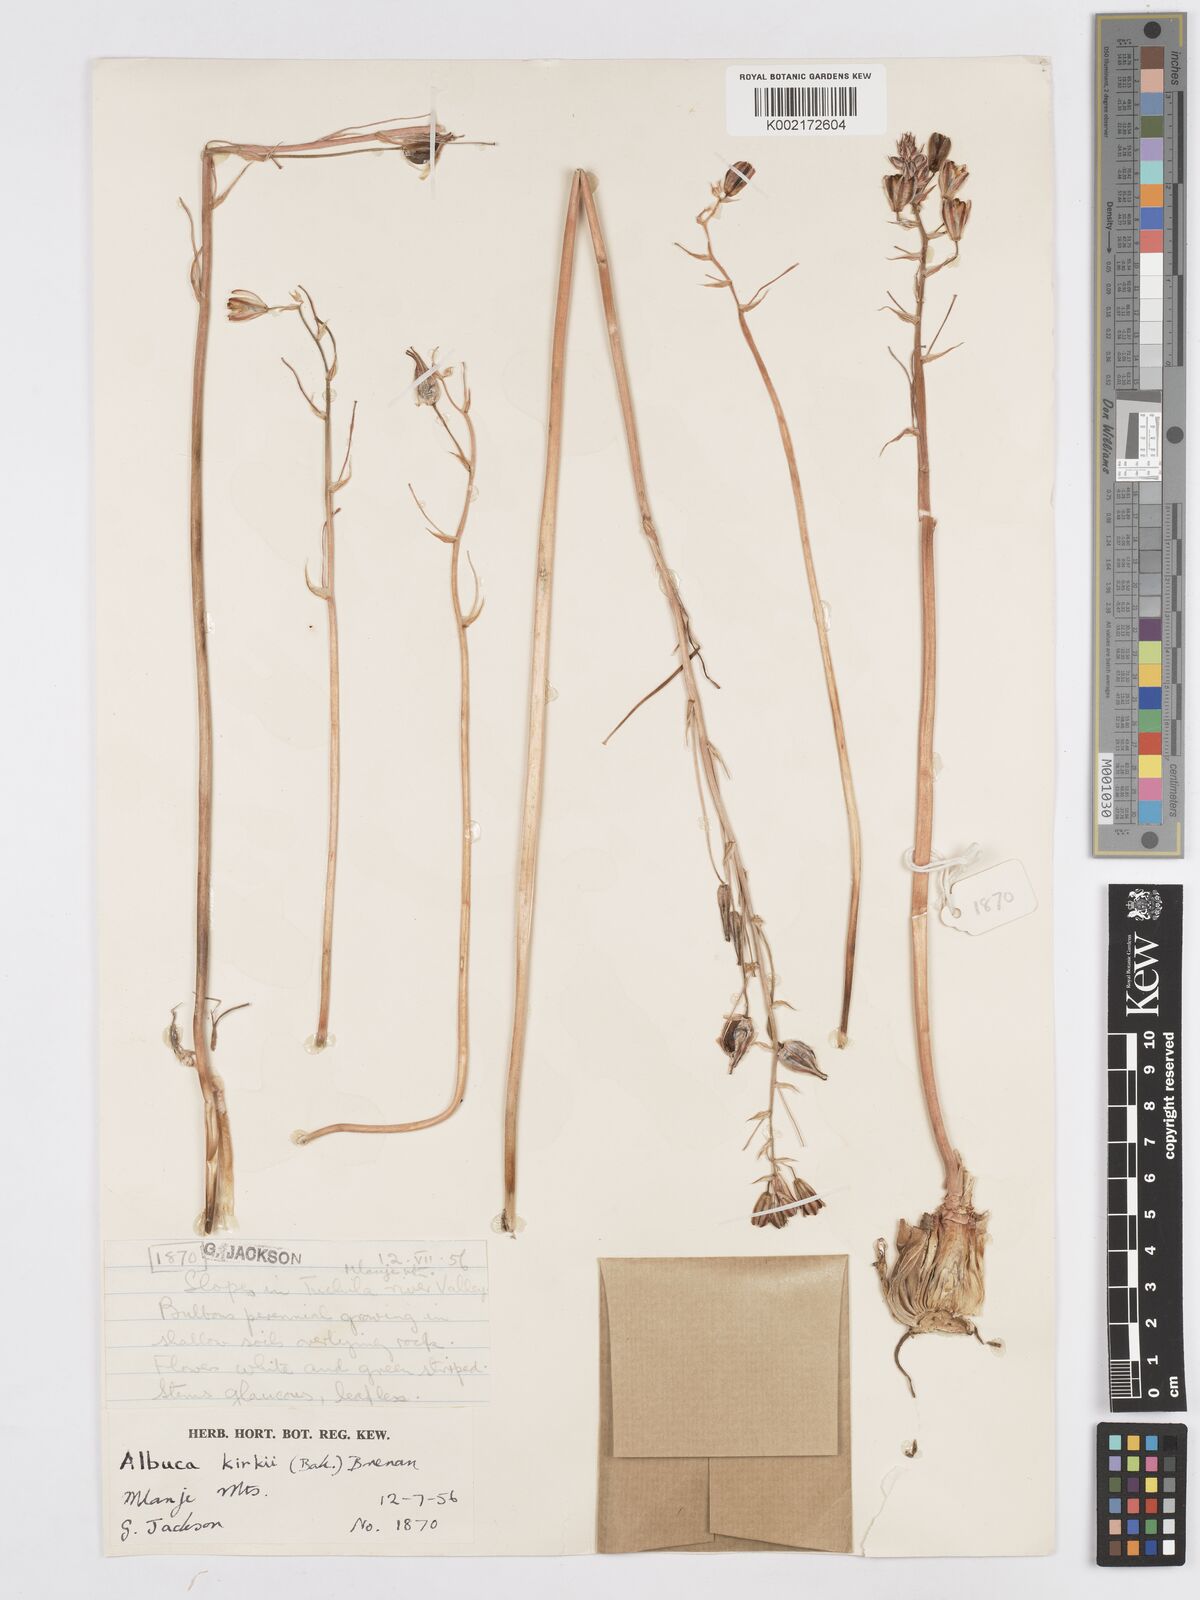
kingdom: Plantae
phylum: Tracheophyta
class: Liliopsida
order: Asparagales
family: Asparagaceae
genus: Albuca
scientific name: Albuca kirkii
